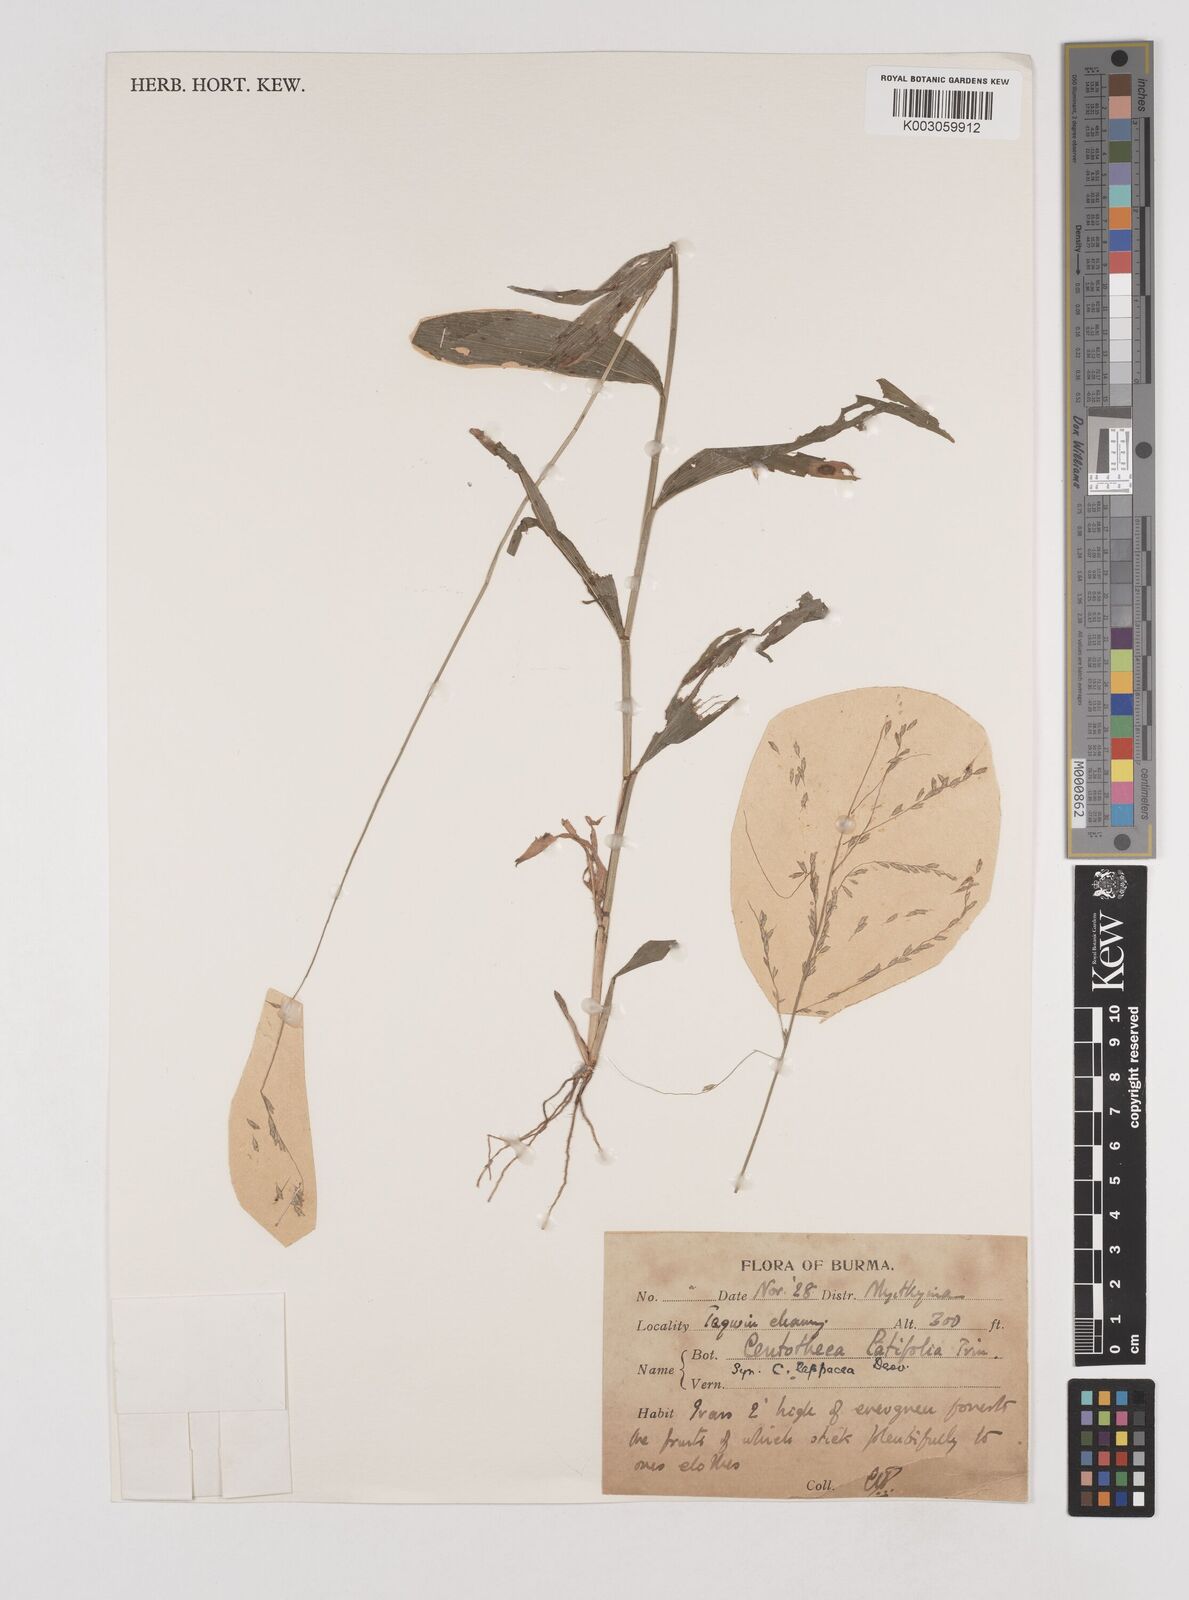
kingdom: Plantae
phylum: Tracheophyta
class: Liliopsida
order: Poales
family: Poaceae
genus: Centotheca
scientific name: Centotheca lappacea
